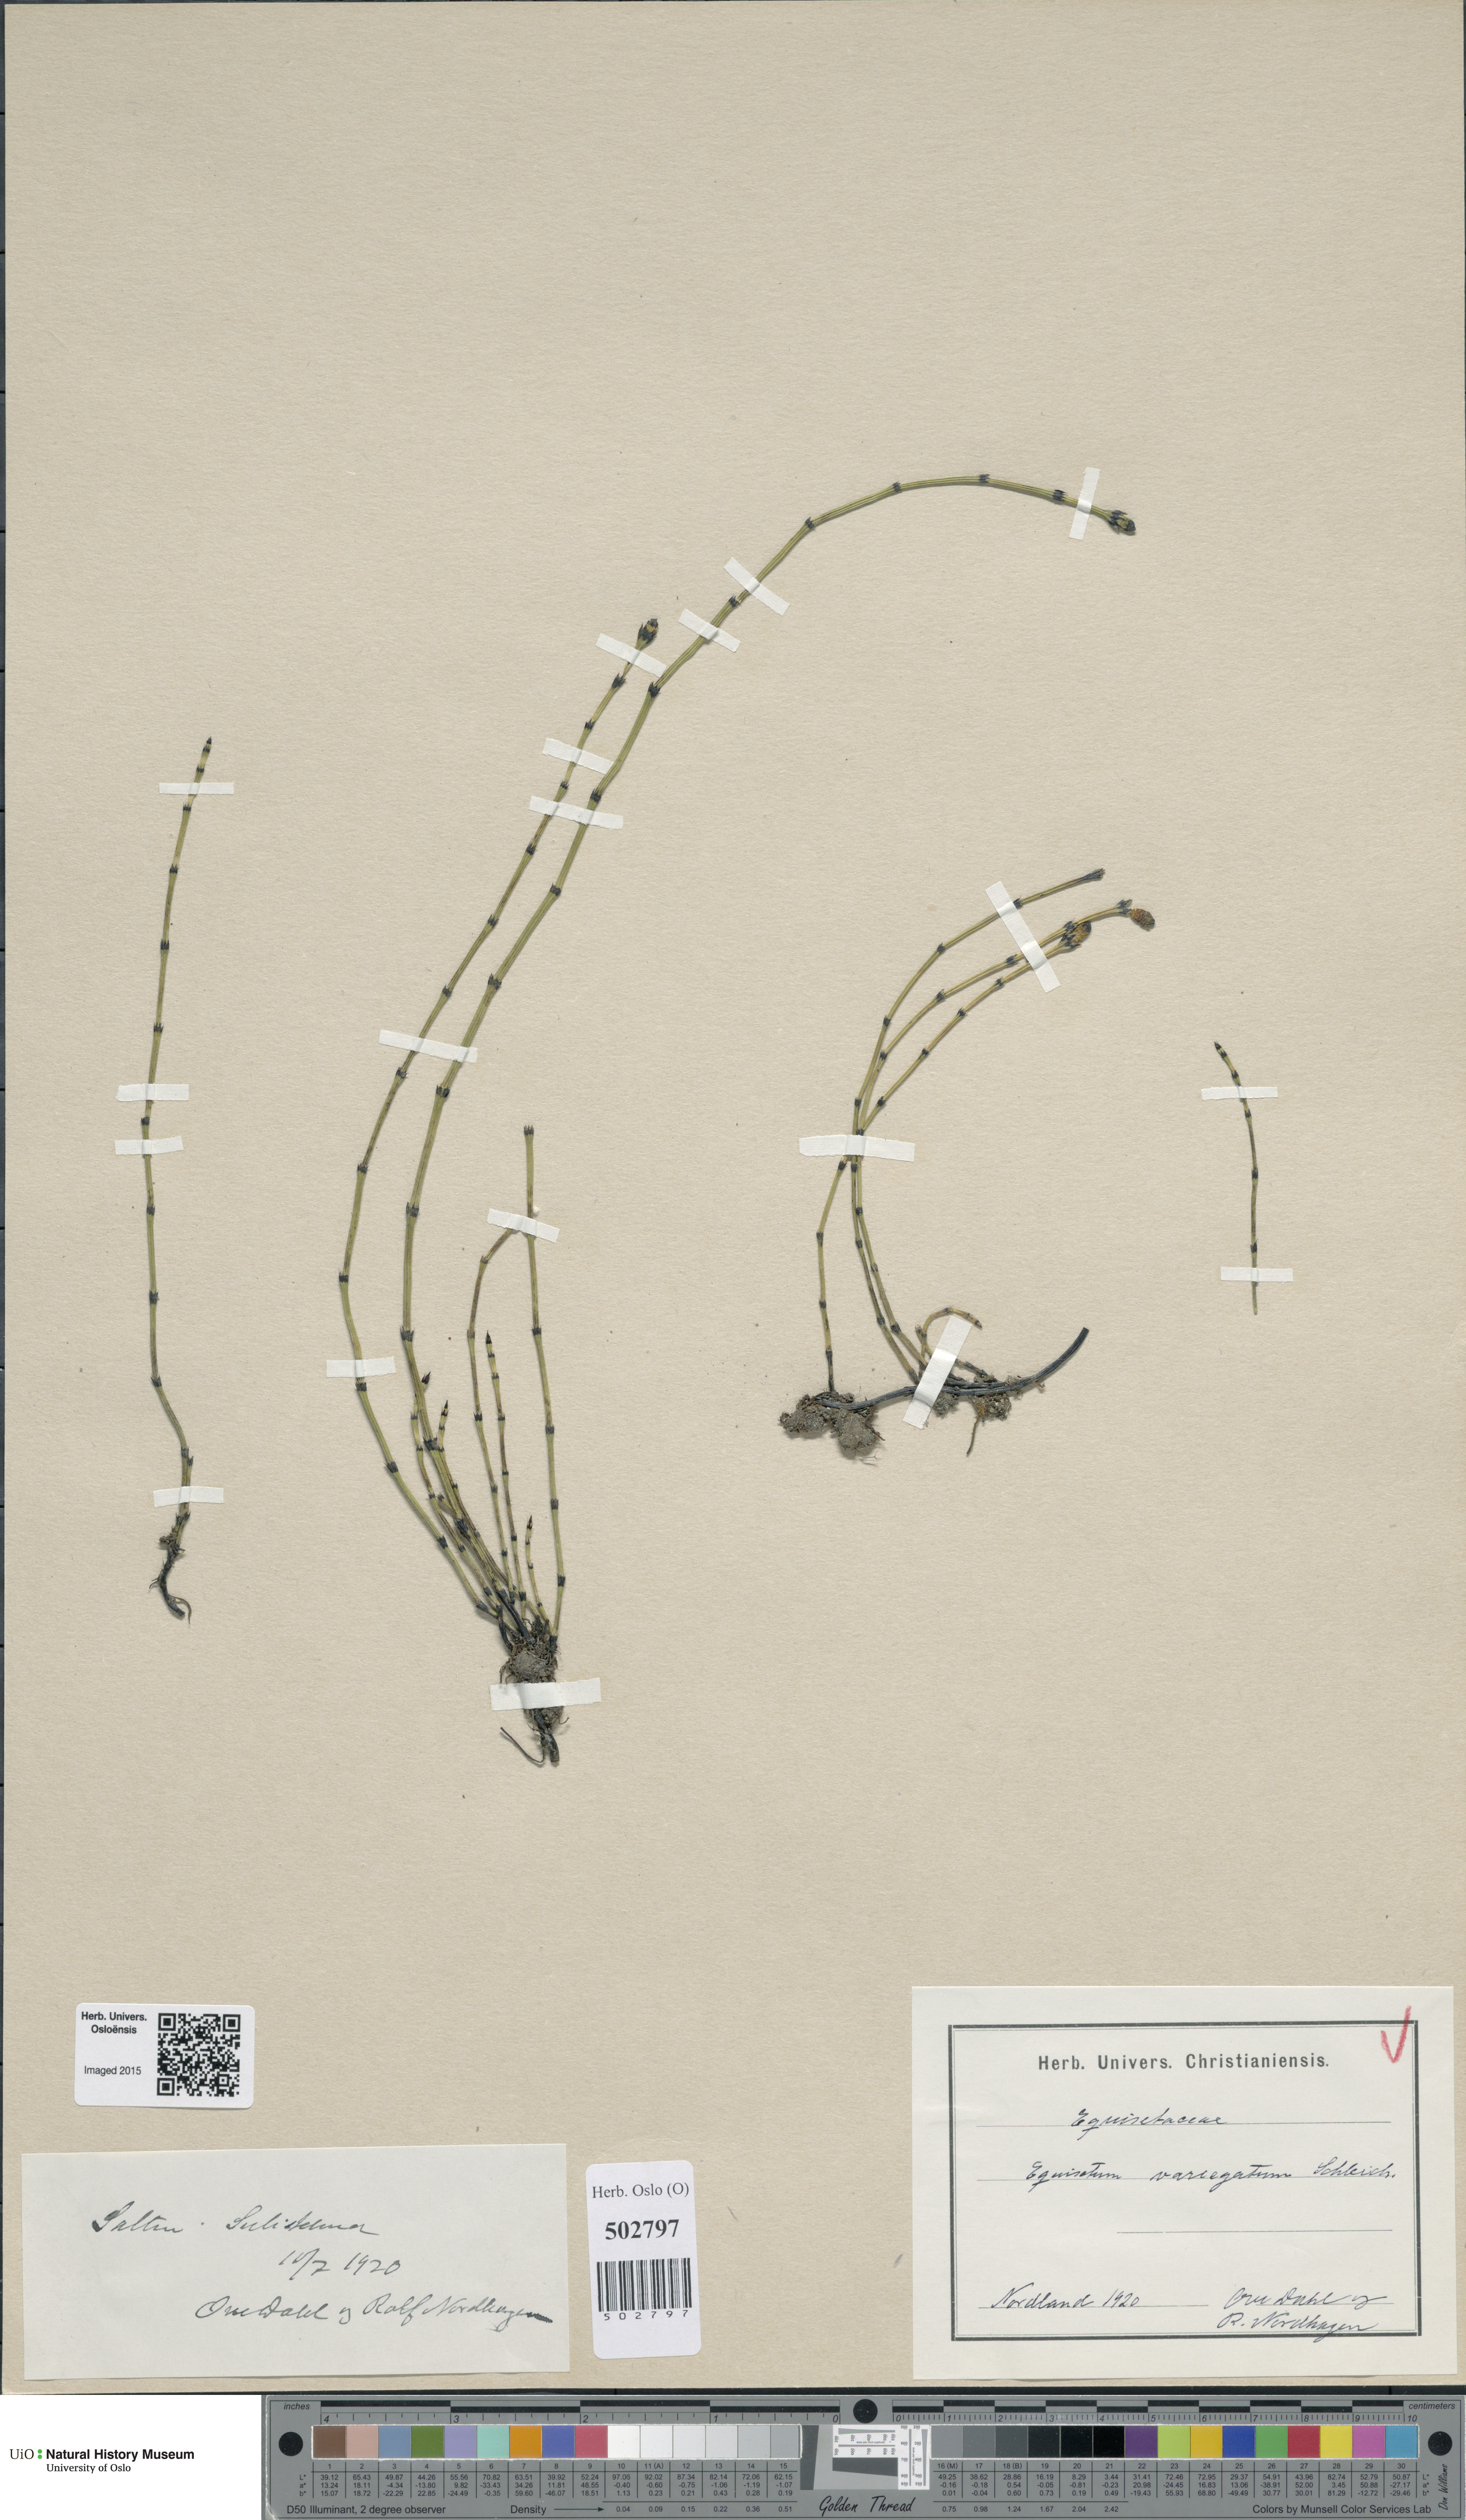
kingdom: Plantae
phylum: Tracheophyta
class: Polypodiopsida
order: Equisetales
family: Equisetaceae
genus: Equisetum
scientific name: Equisetum variegatum
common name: Variegated horsetail
